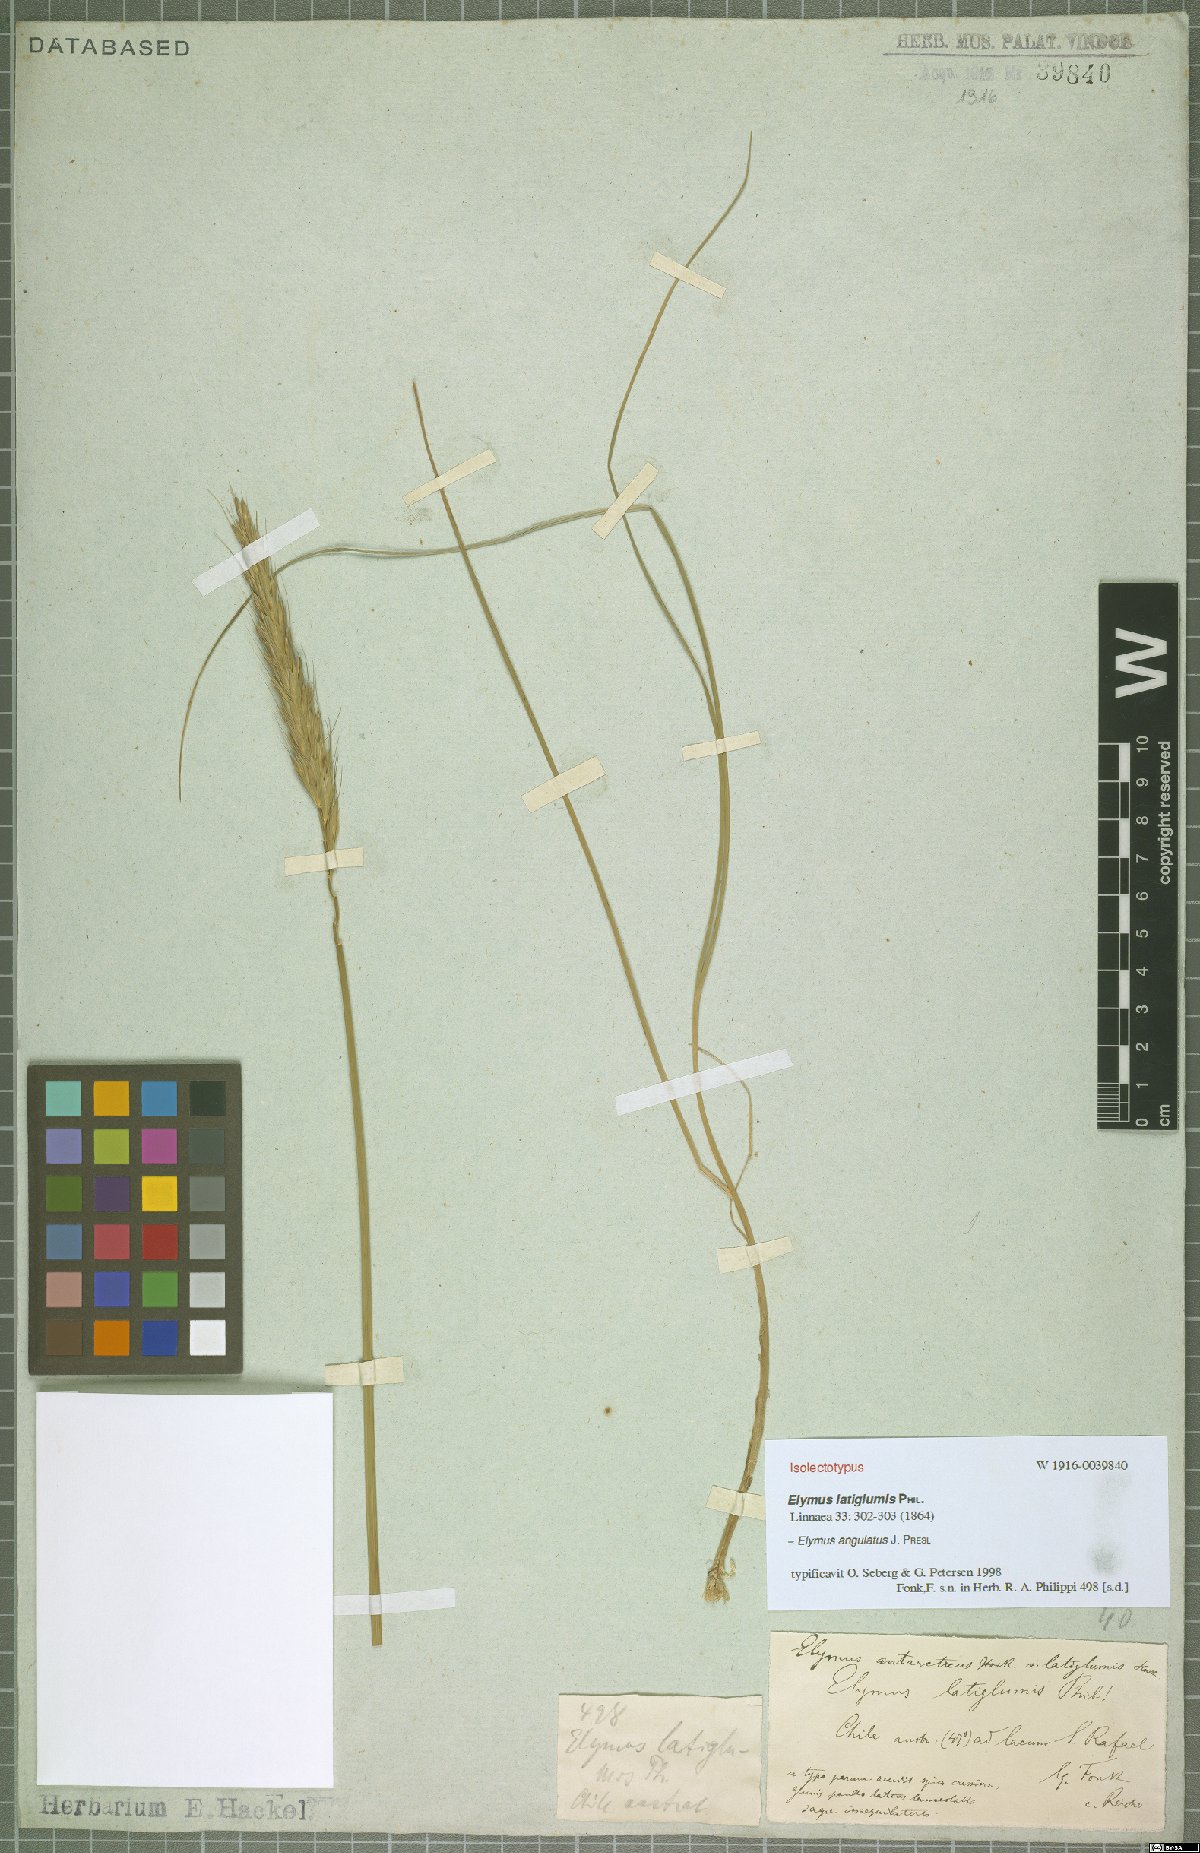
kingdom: Plantae
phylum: Tracheophyta
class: Liliopsida
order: Poales
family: Poaceae
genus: Elymus
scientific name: Elymus angulatus
